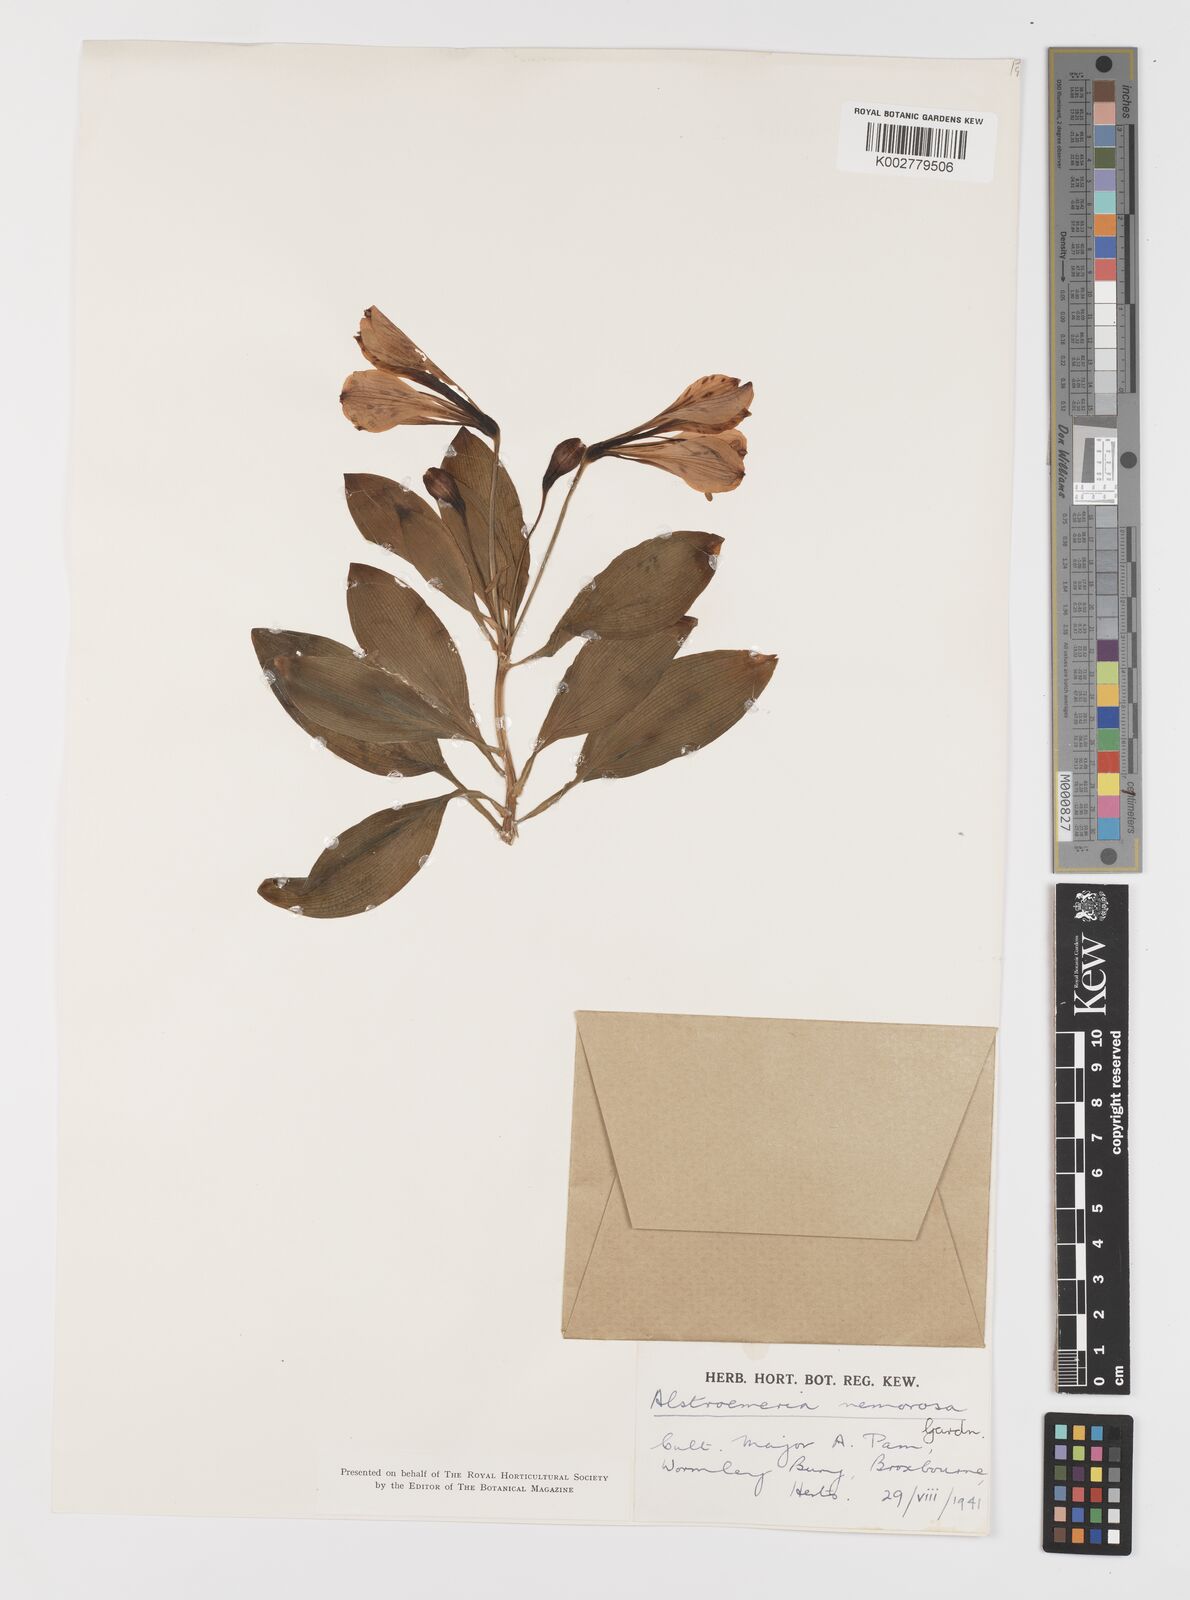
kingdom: Plantae
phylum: Tracheophyta
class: Liliopsida
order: Liliales
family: Alstroemeriaceae
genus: Alstroemeria
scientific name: Alstroemeria cunha
